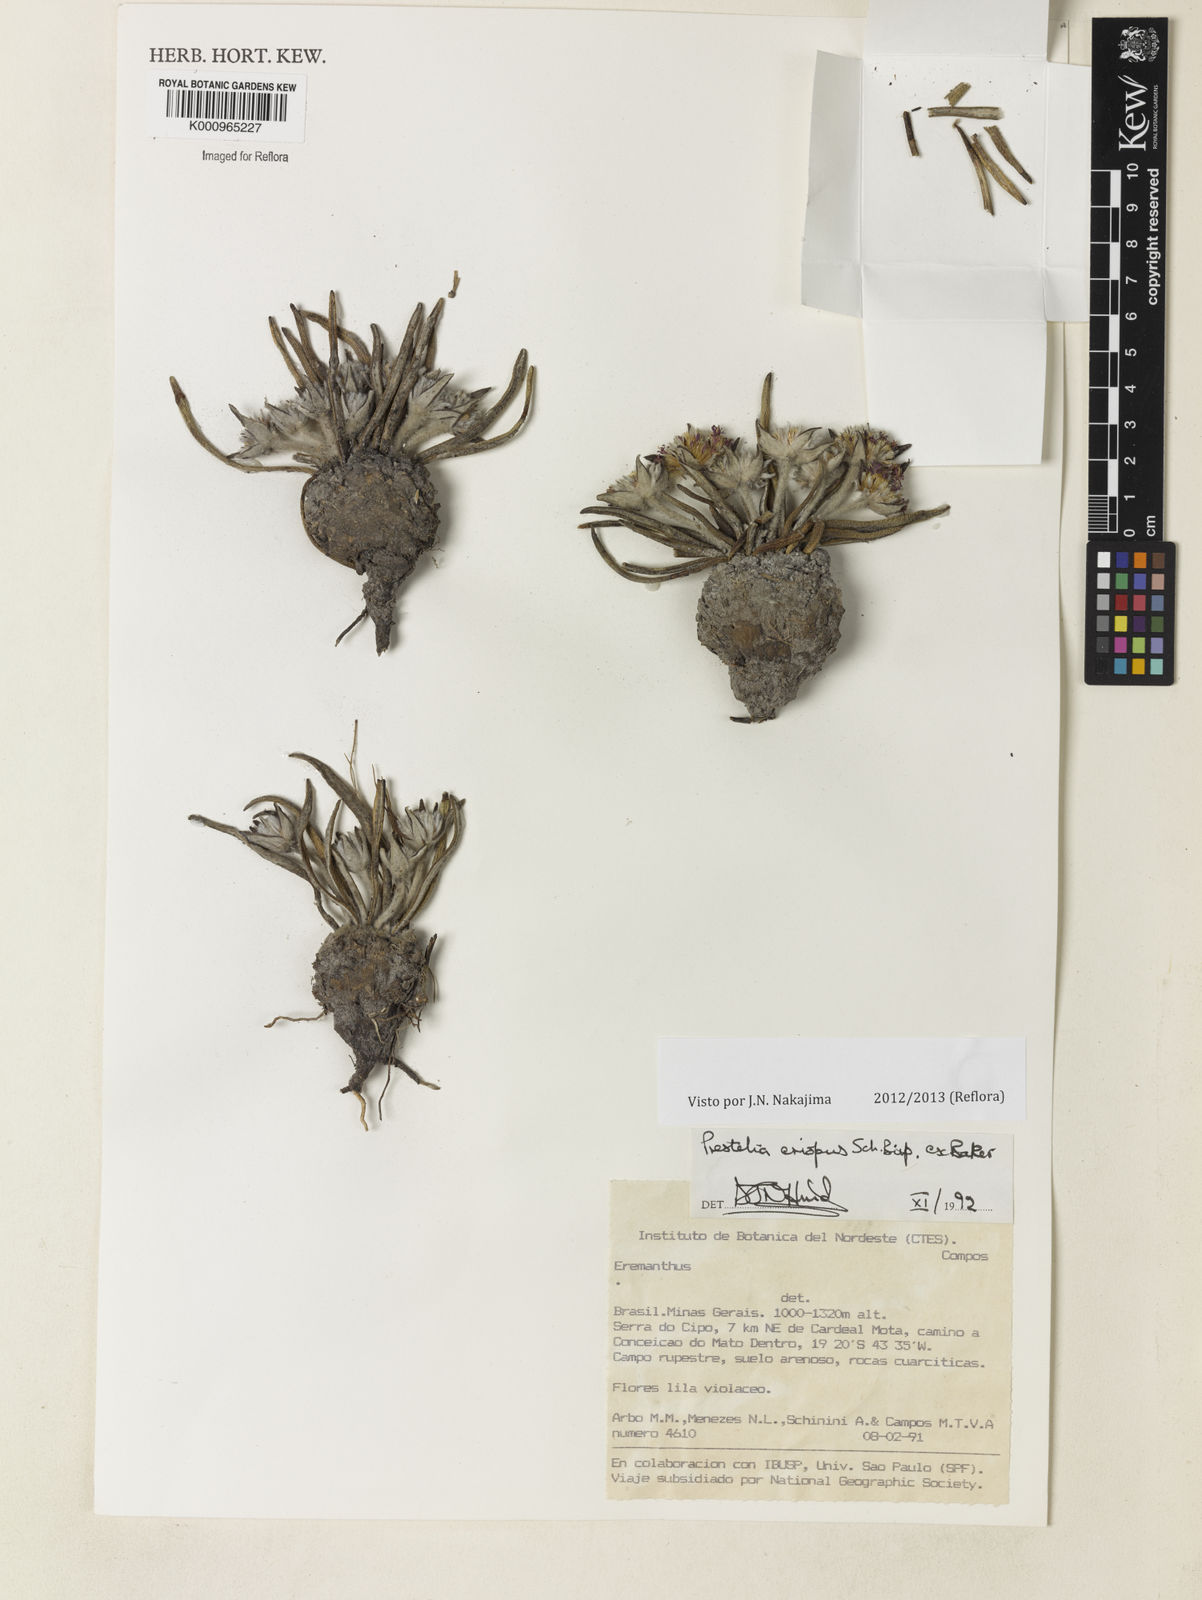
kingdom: Plantae
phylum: Tracheophyta
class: Magnoliopsida
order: Asterales
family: Asteraceae
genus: Prestelia
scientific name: Prestelia eriopus
